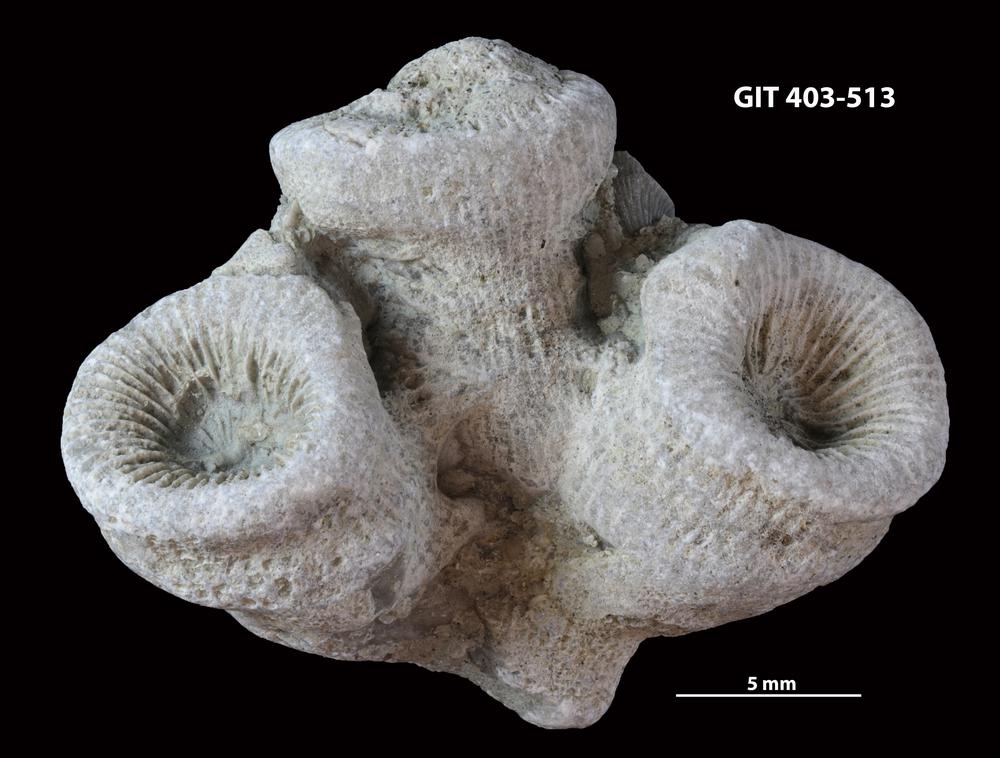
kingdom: Animalia
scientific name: Animalia
